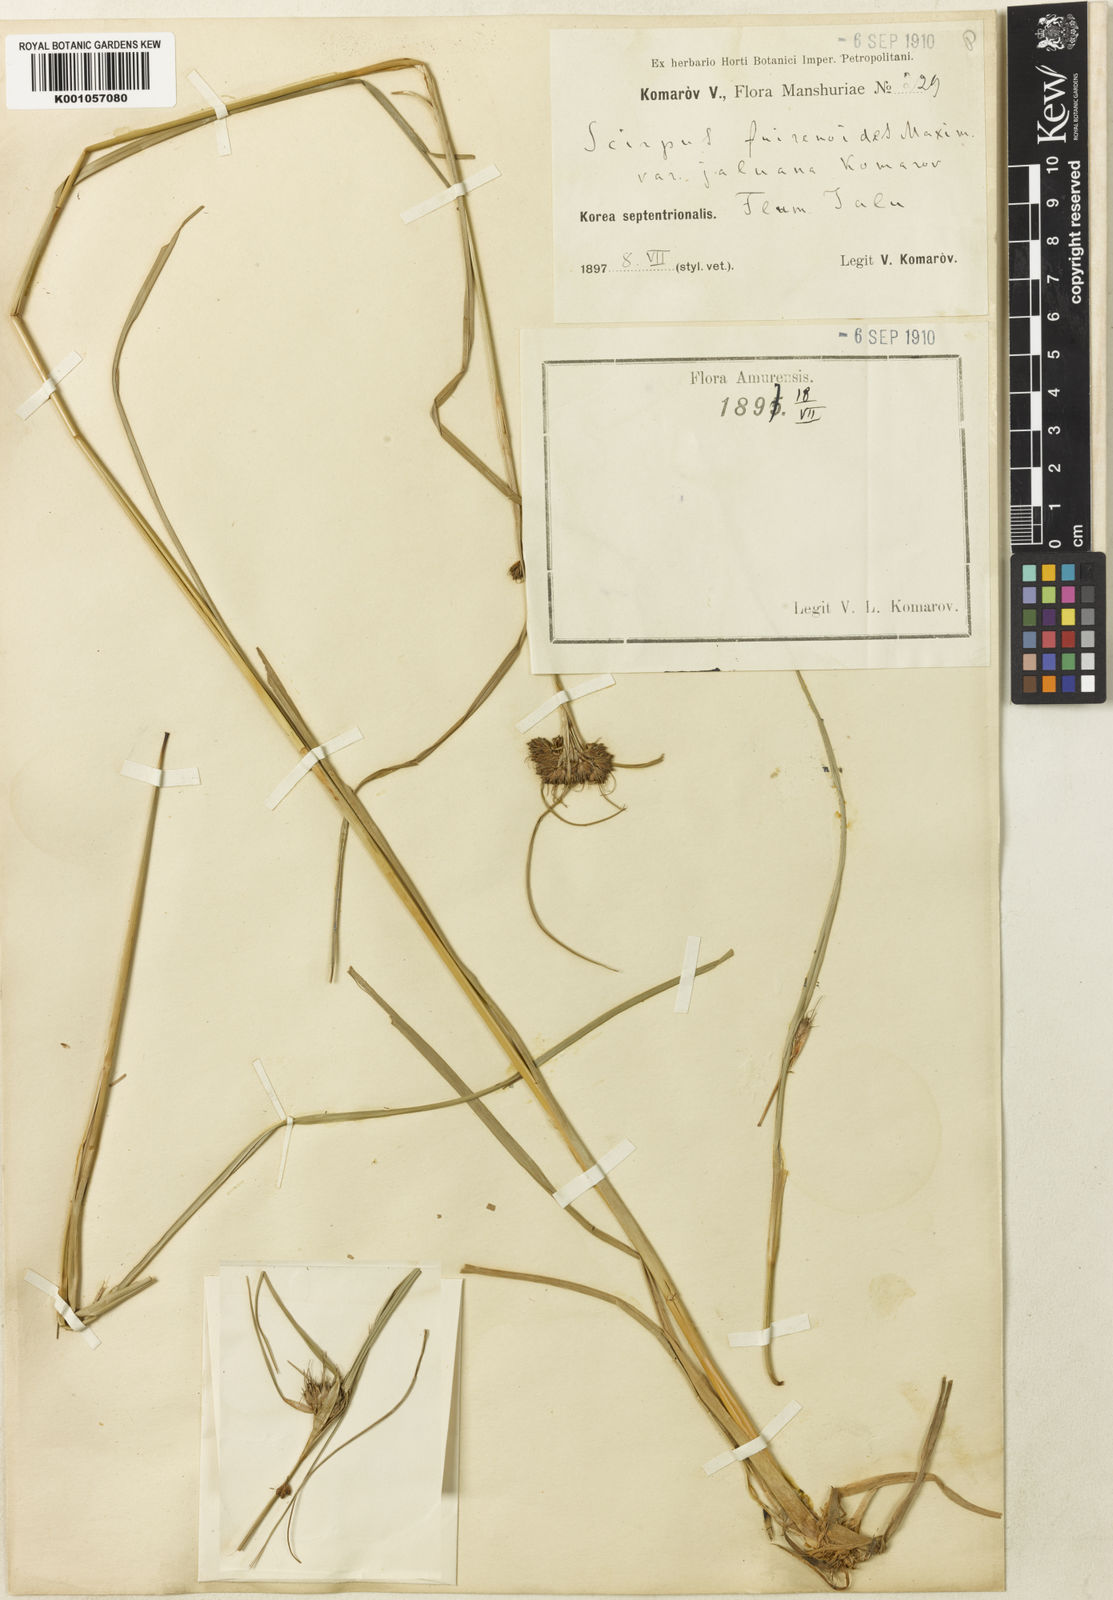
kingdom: Plantae
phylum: Tracheophyta
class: Liliopsida
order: Poales
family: Cyperaceae
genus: Scirpus
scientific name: Scirpus fuirenoides
